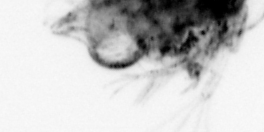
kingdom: Animalia
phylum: Arthropoda
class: Malacostraca
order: Decapoda
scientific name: Decapoda
